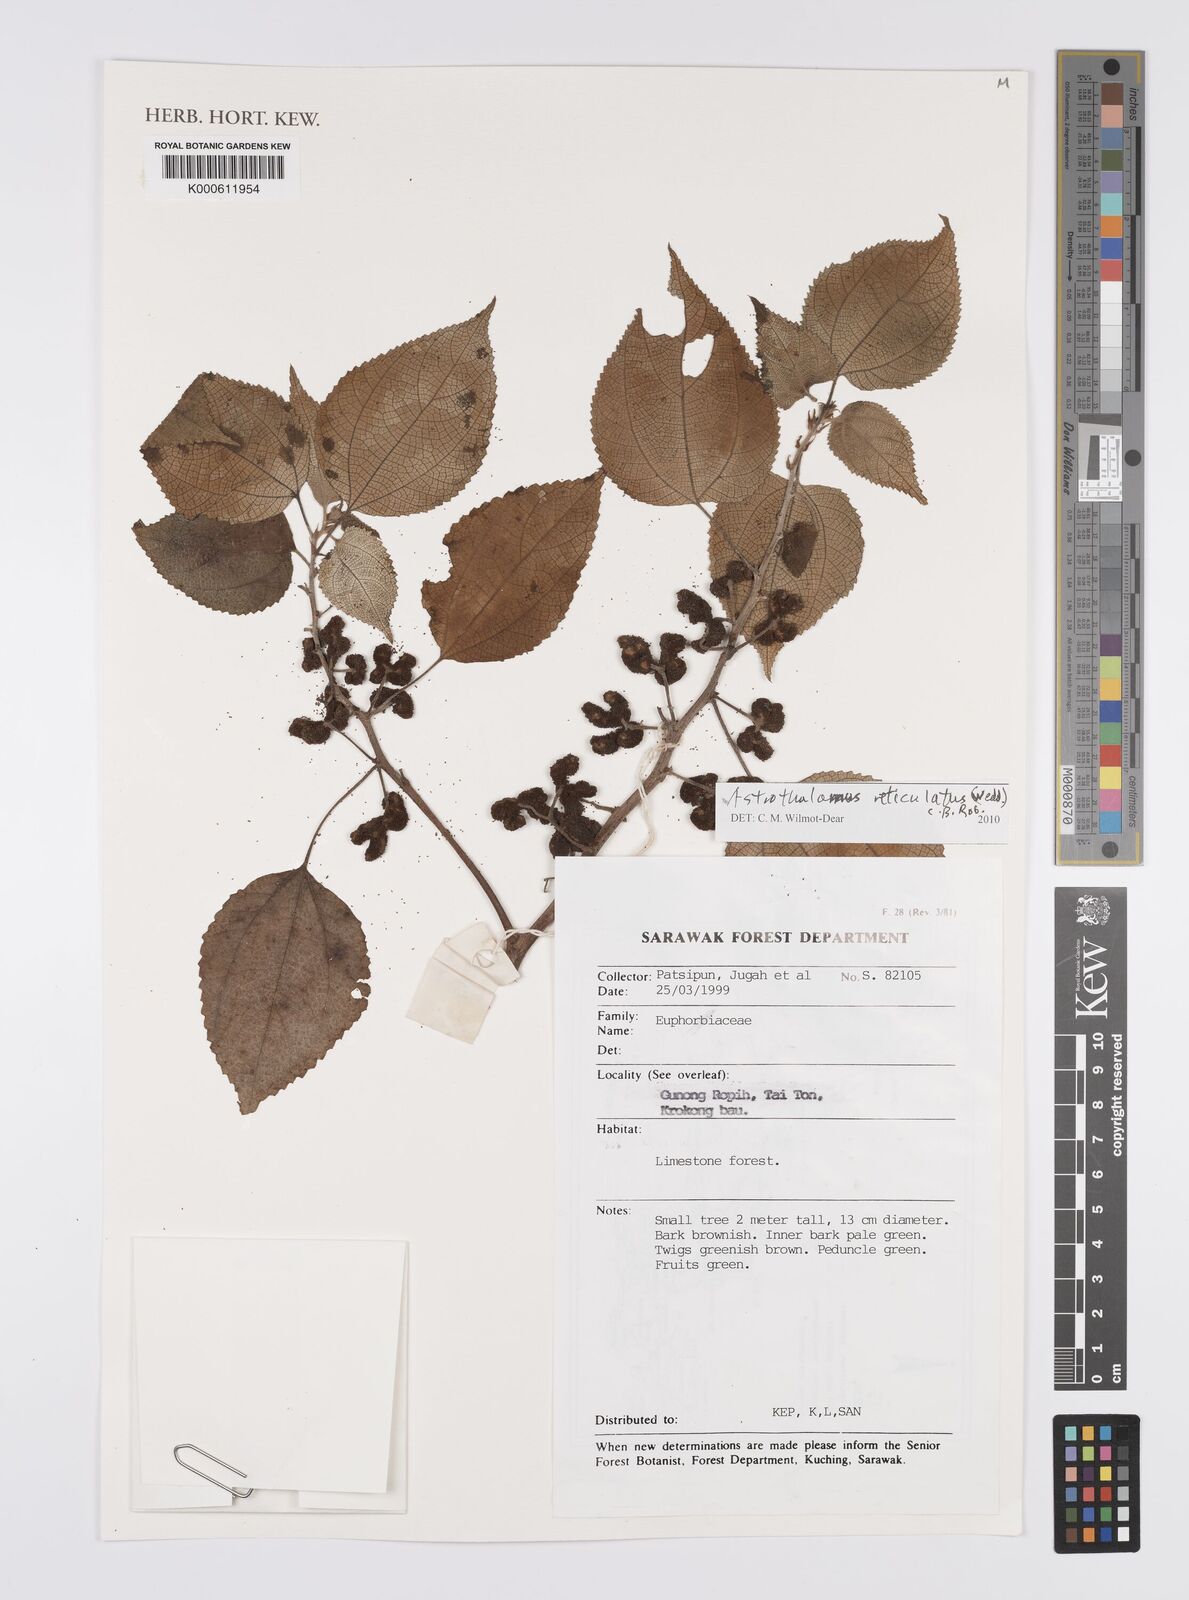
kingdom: Plantae
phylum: Tracheophyta
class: Magnoliopsida
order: Rosales
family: Urticaceae
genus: Astrothalamus
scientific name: Astrothalamus reticulatus
